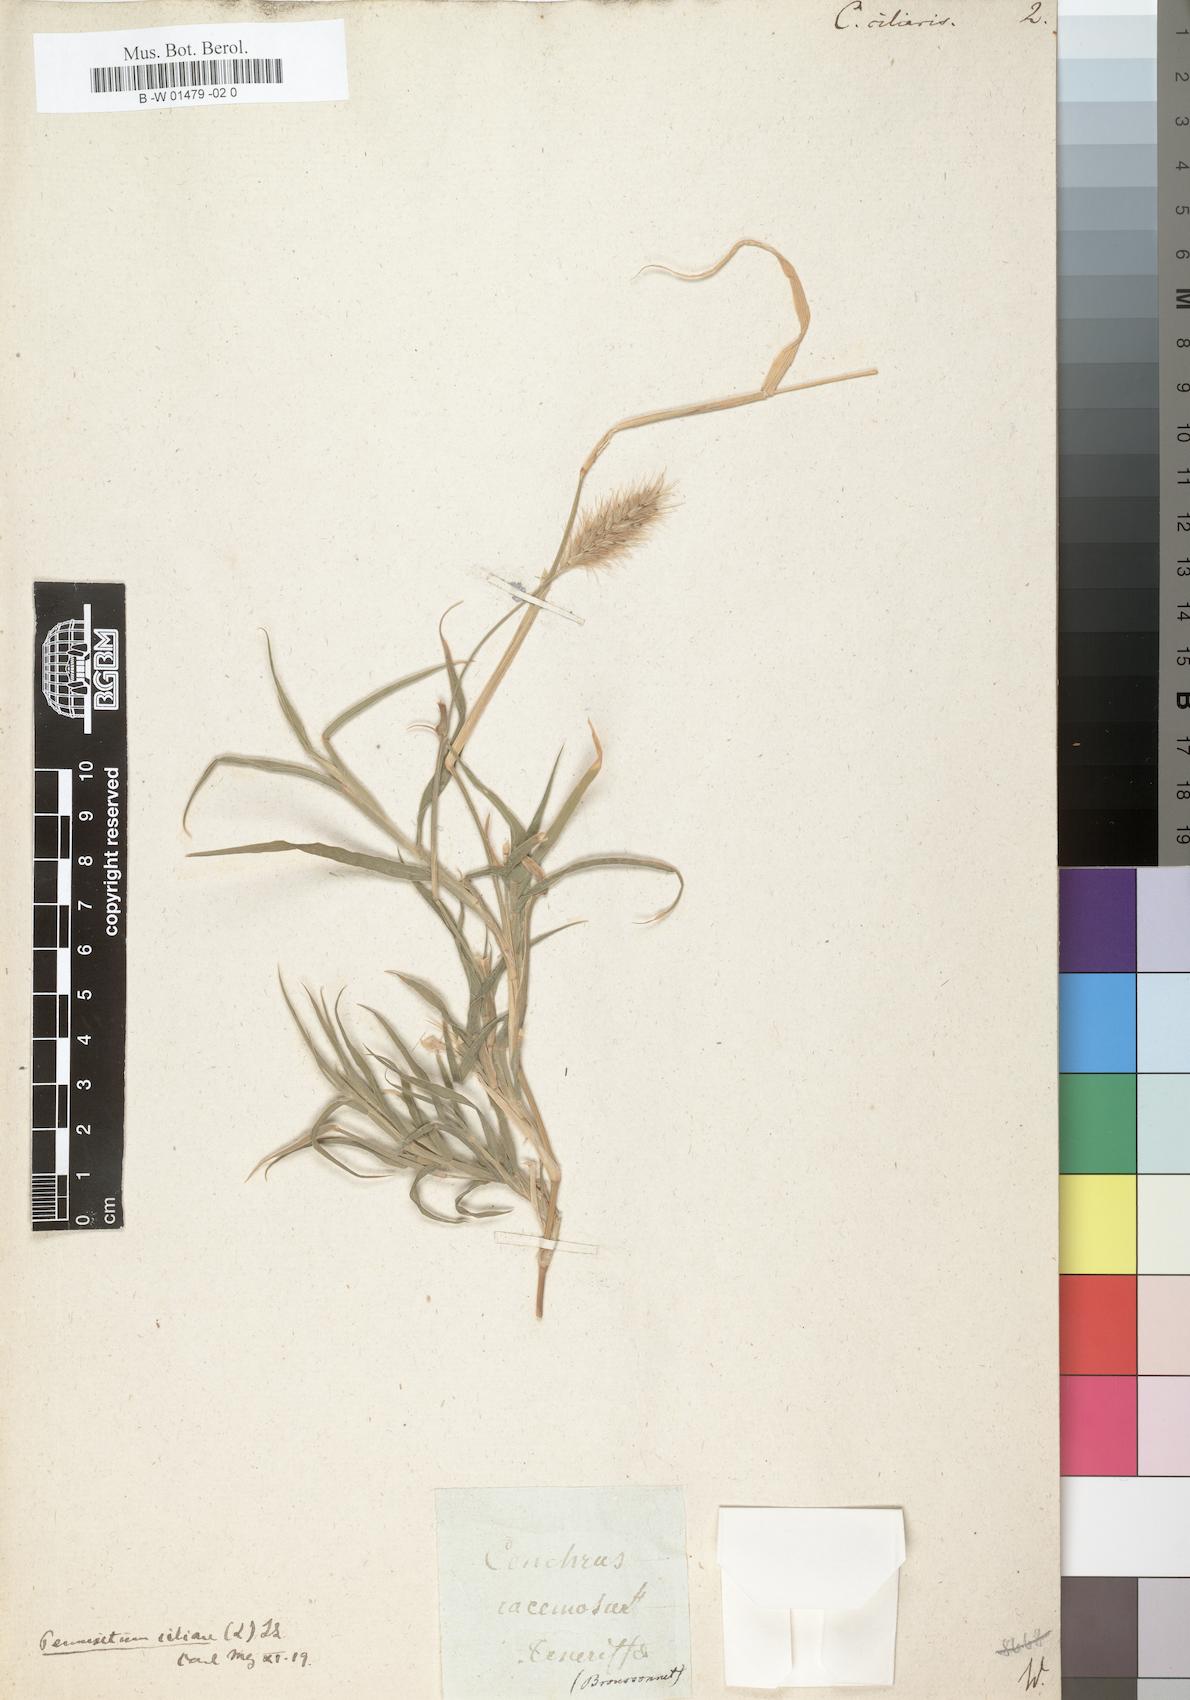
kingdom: Plantae
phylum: Tracheophyta
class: Liliopsida
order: Poales
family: Poaceae
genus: Cenchrus
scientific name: Cenchrus ciliaris
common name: Buffelgrass
